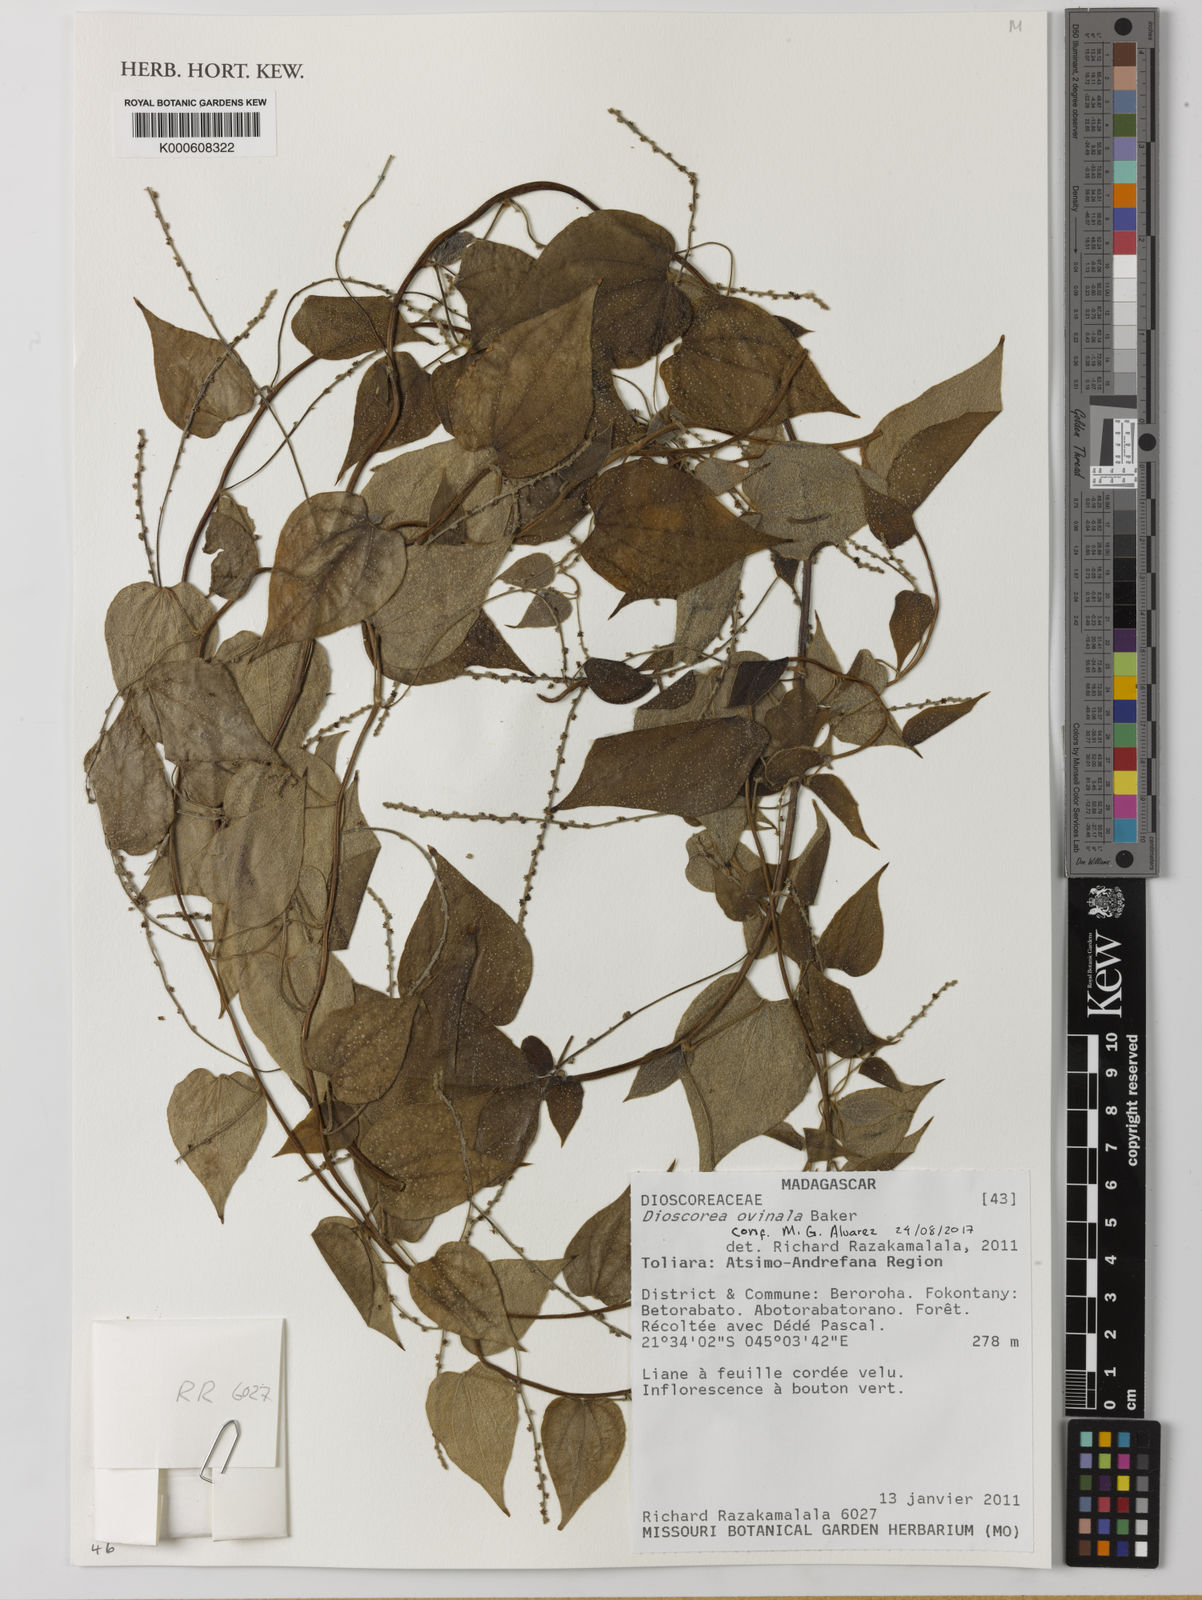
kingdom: Plantae
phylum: Tracheophyta
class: Liliopsida
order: Dioscoreales
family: Dioscoreaceae
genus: Dioscorea
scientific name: Dioscorea ovinala
